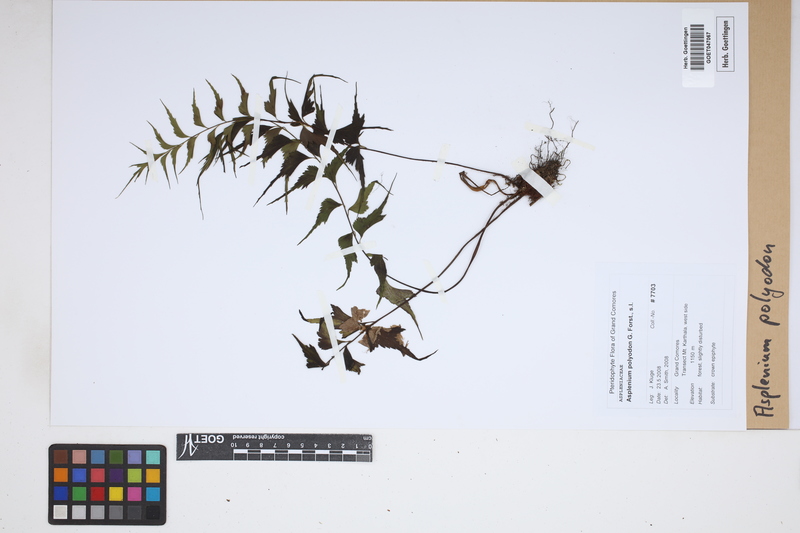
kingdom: Plantae
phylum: Tracheophyta
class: Polypodiopsida
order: Polypodiales
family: Aspleniaceae
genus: Asplenium
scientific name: Asplenium polyodon
